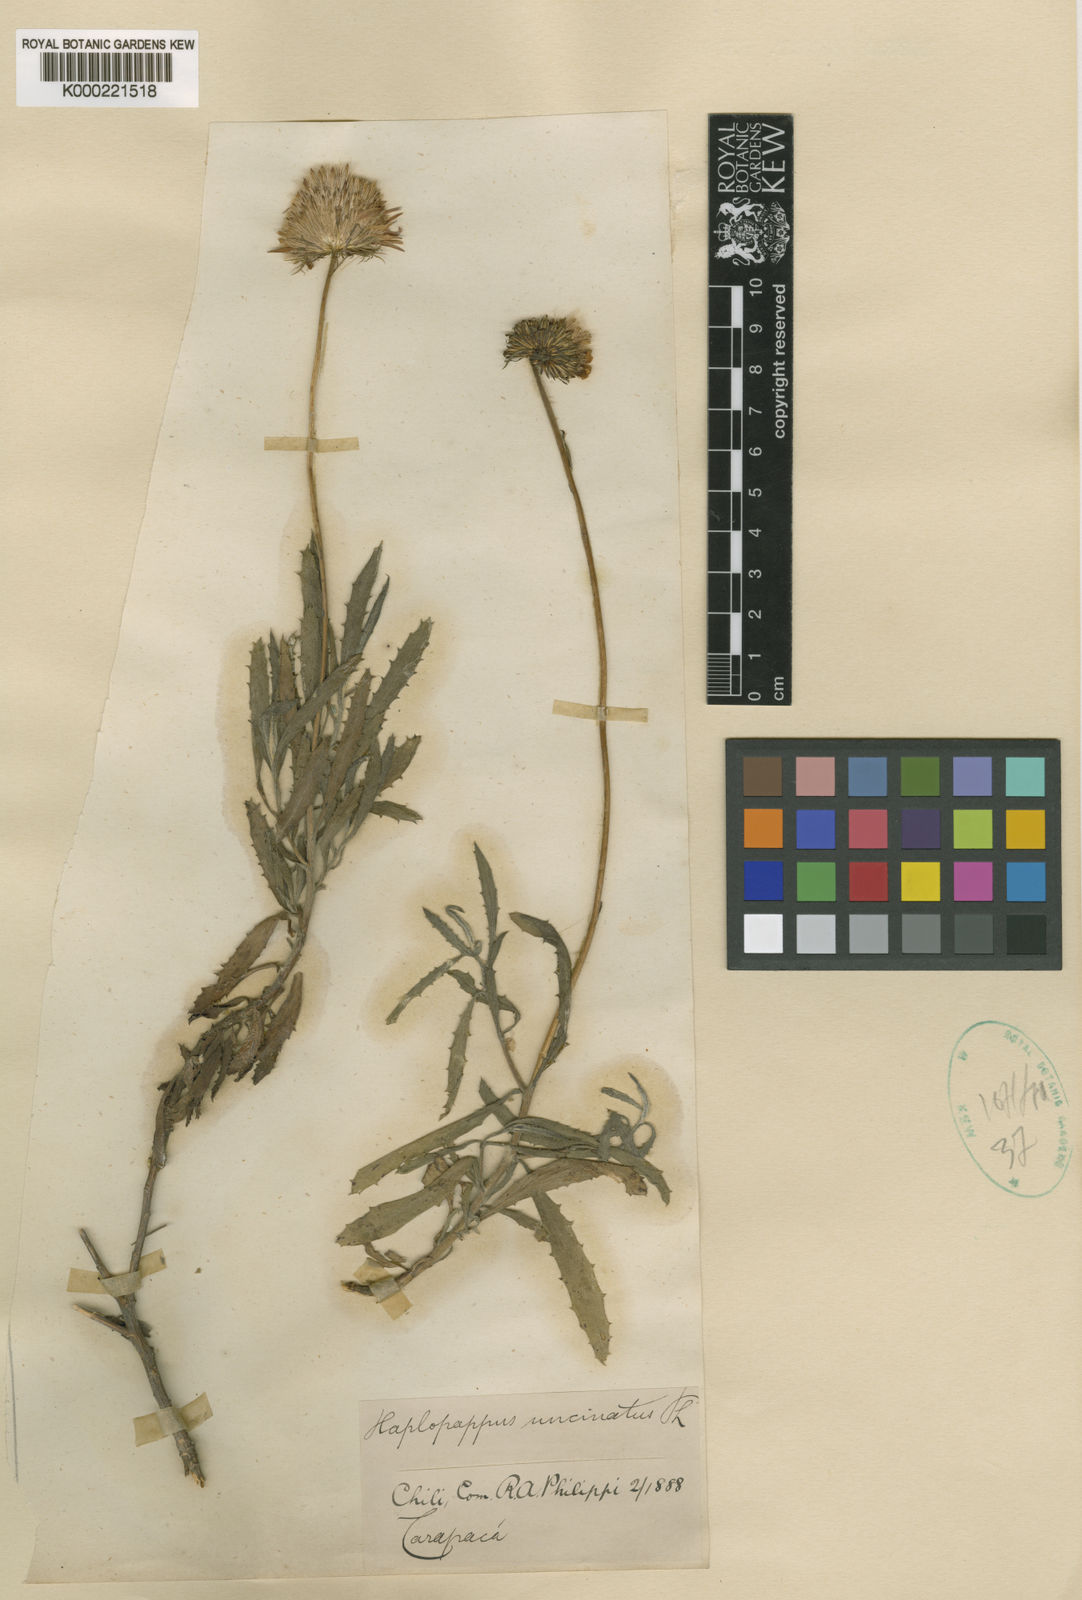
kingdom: Plantae
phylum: Tracheophyta
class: Magnoliopsida
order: Asterales
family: Asteraceae
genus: Haplopappus
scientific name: Haplopappus uncinatus
